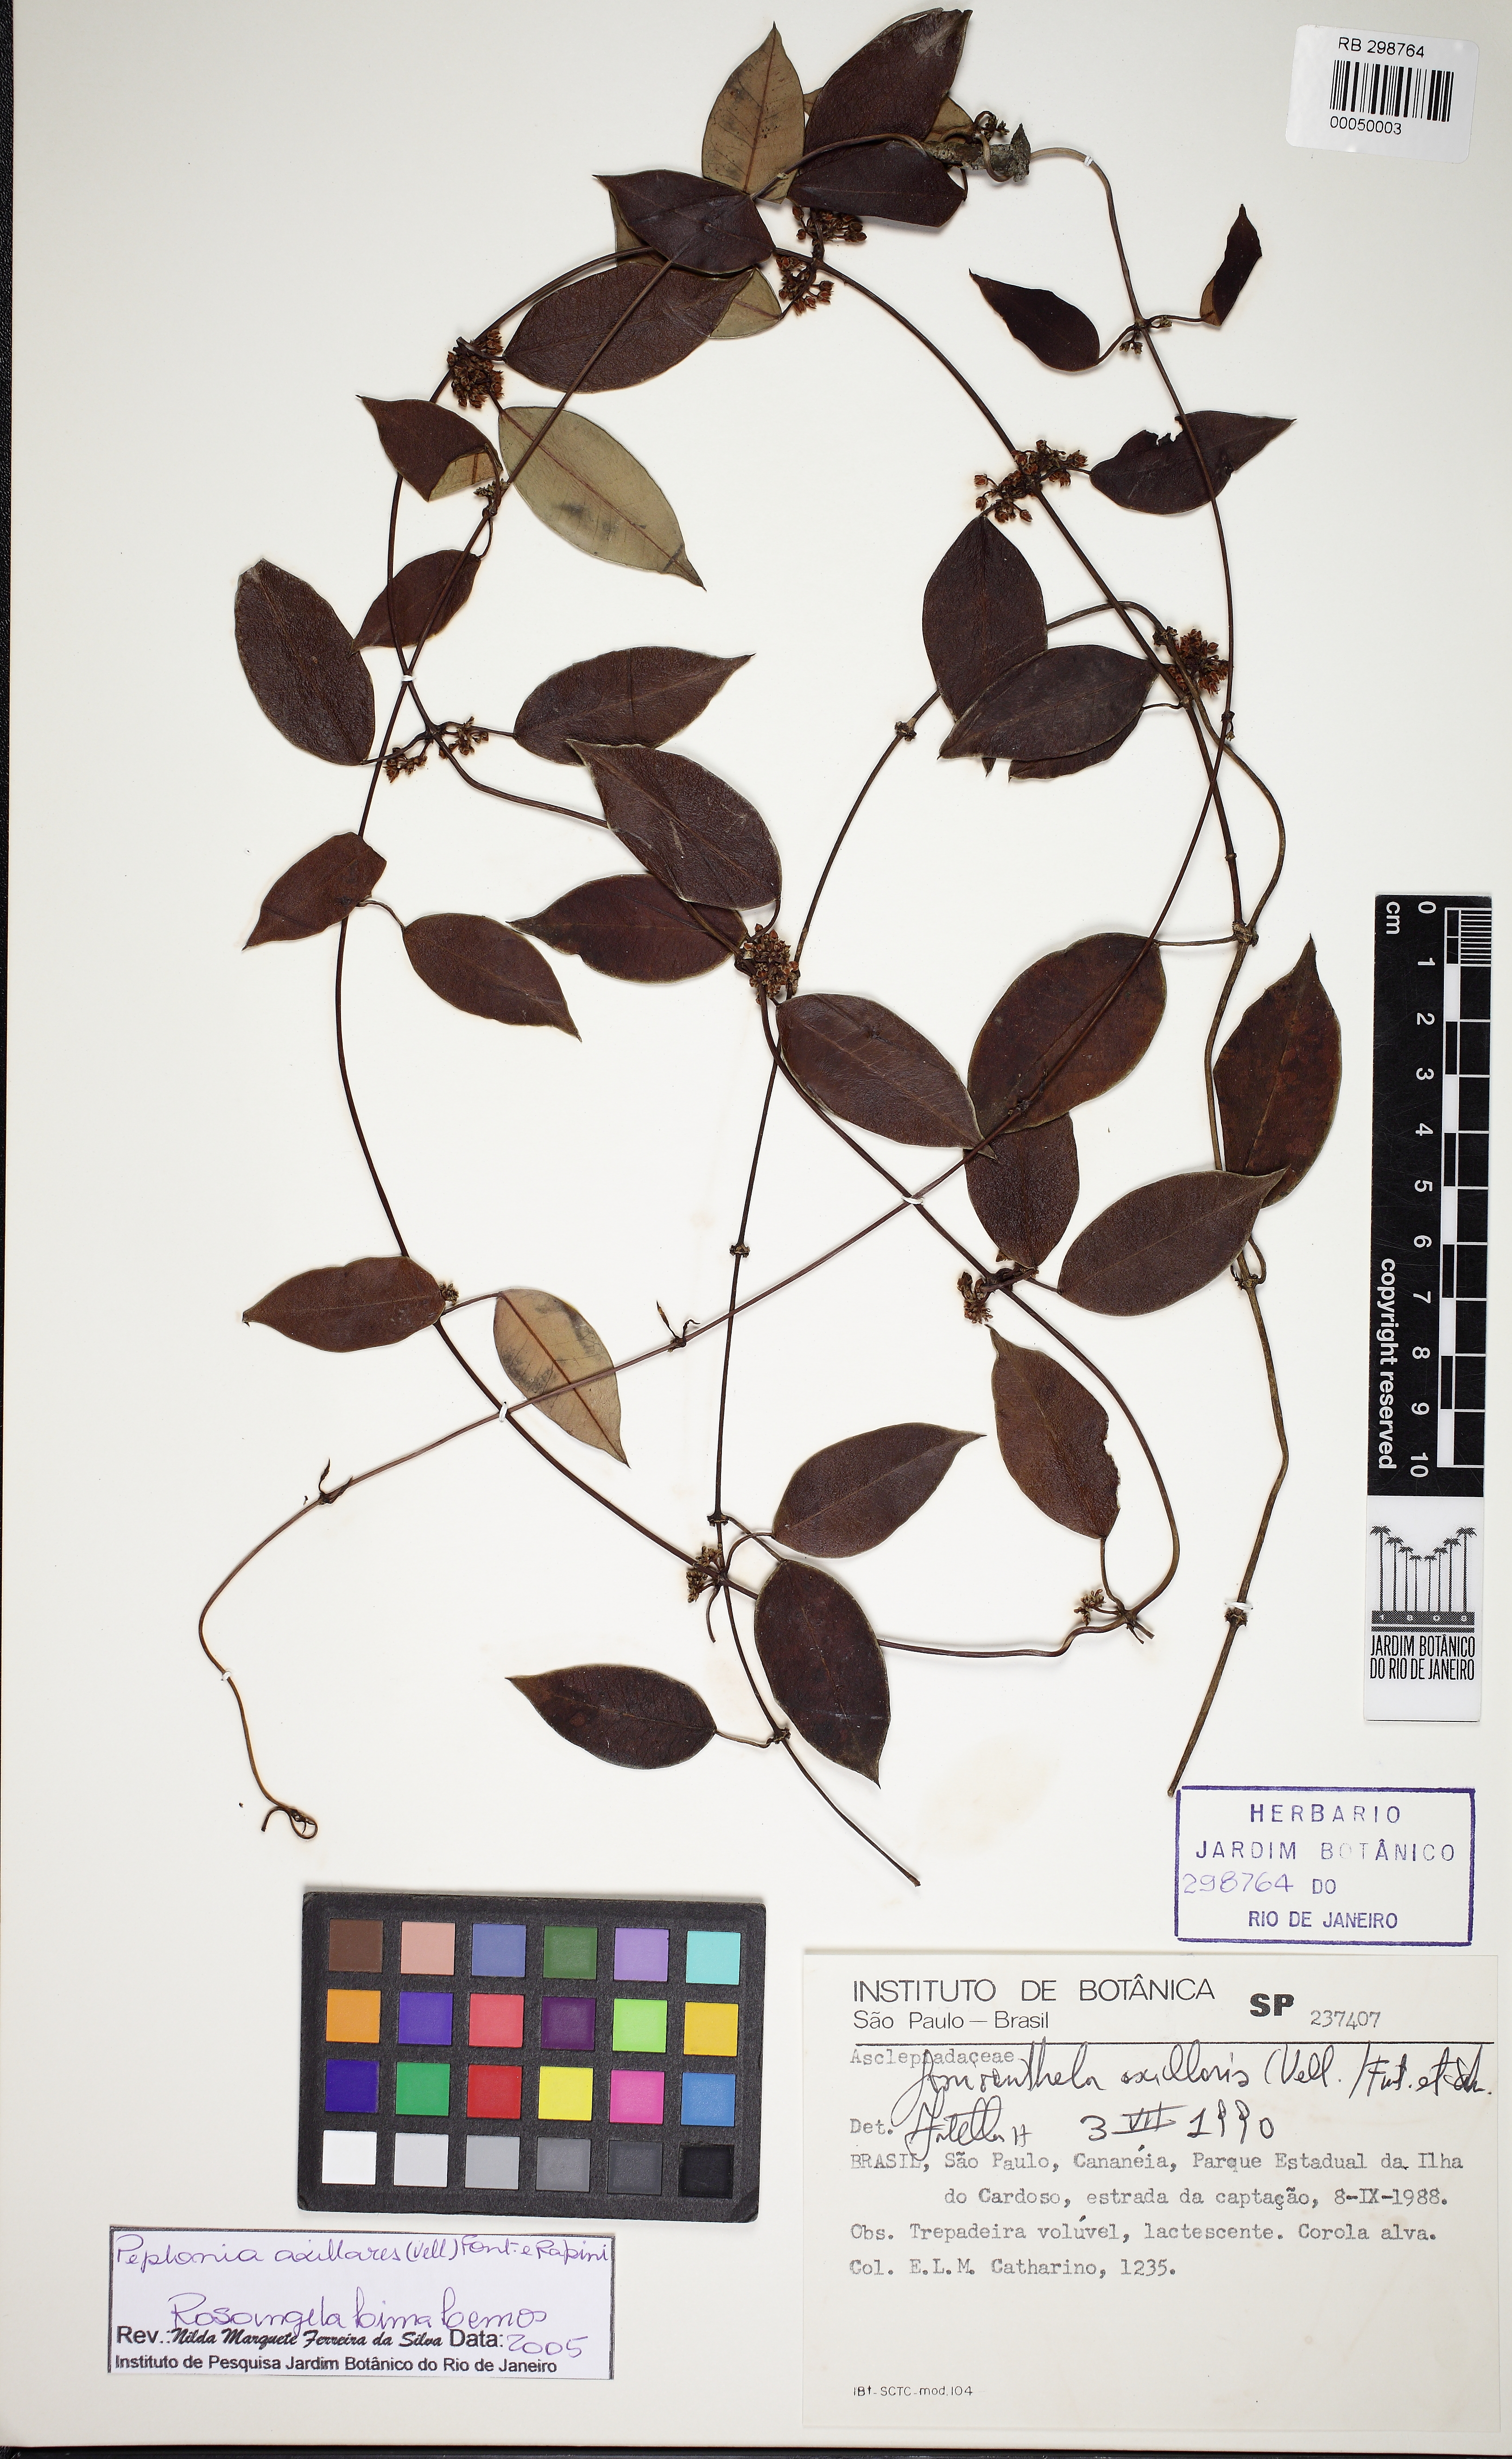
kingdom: Plantae
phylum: Tracheophyta
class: Magnoliopsida
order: Gentianales
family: Apocynaceae
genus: Peplonia
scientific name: Peplonia axillaris
